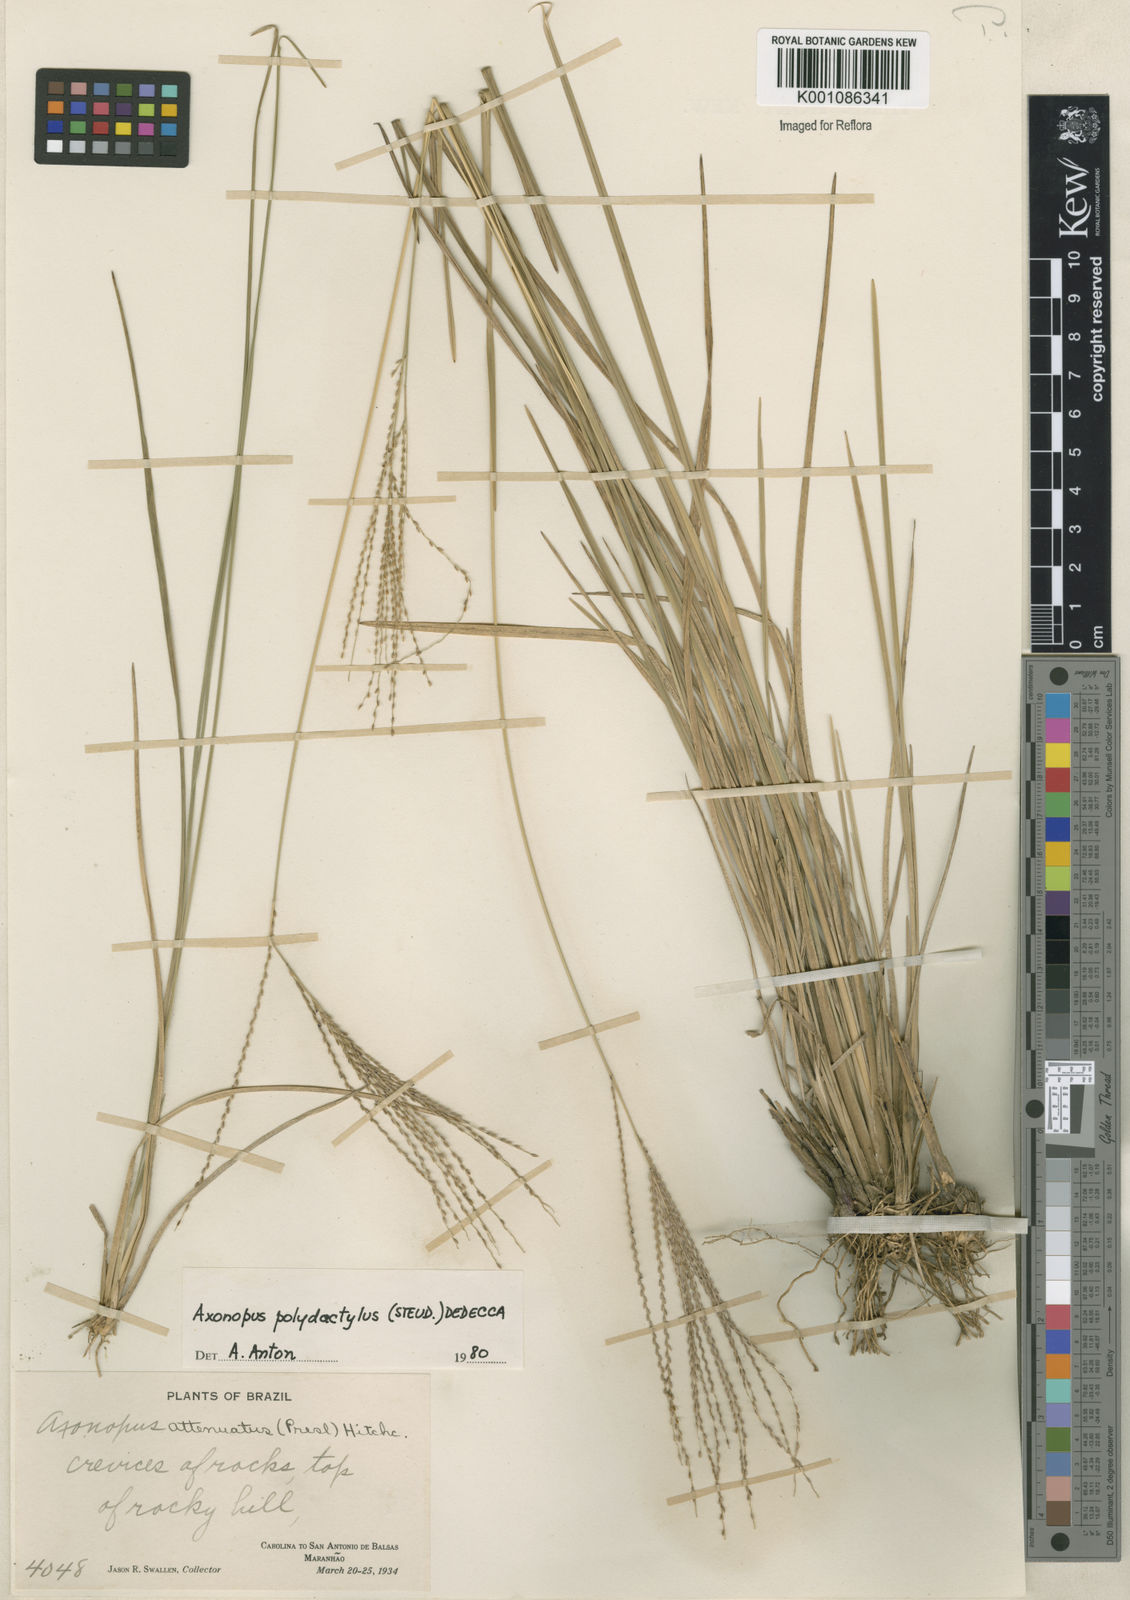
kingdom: Plantae
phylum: Tracheophyta
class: Liliopsida
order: Poales
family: Poaceae
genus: Axonopus
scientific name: Axonopus polydactylus
